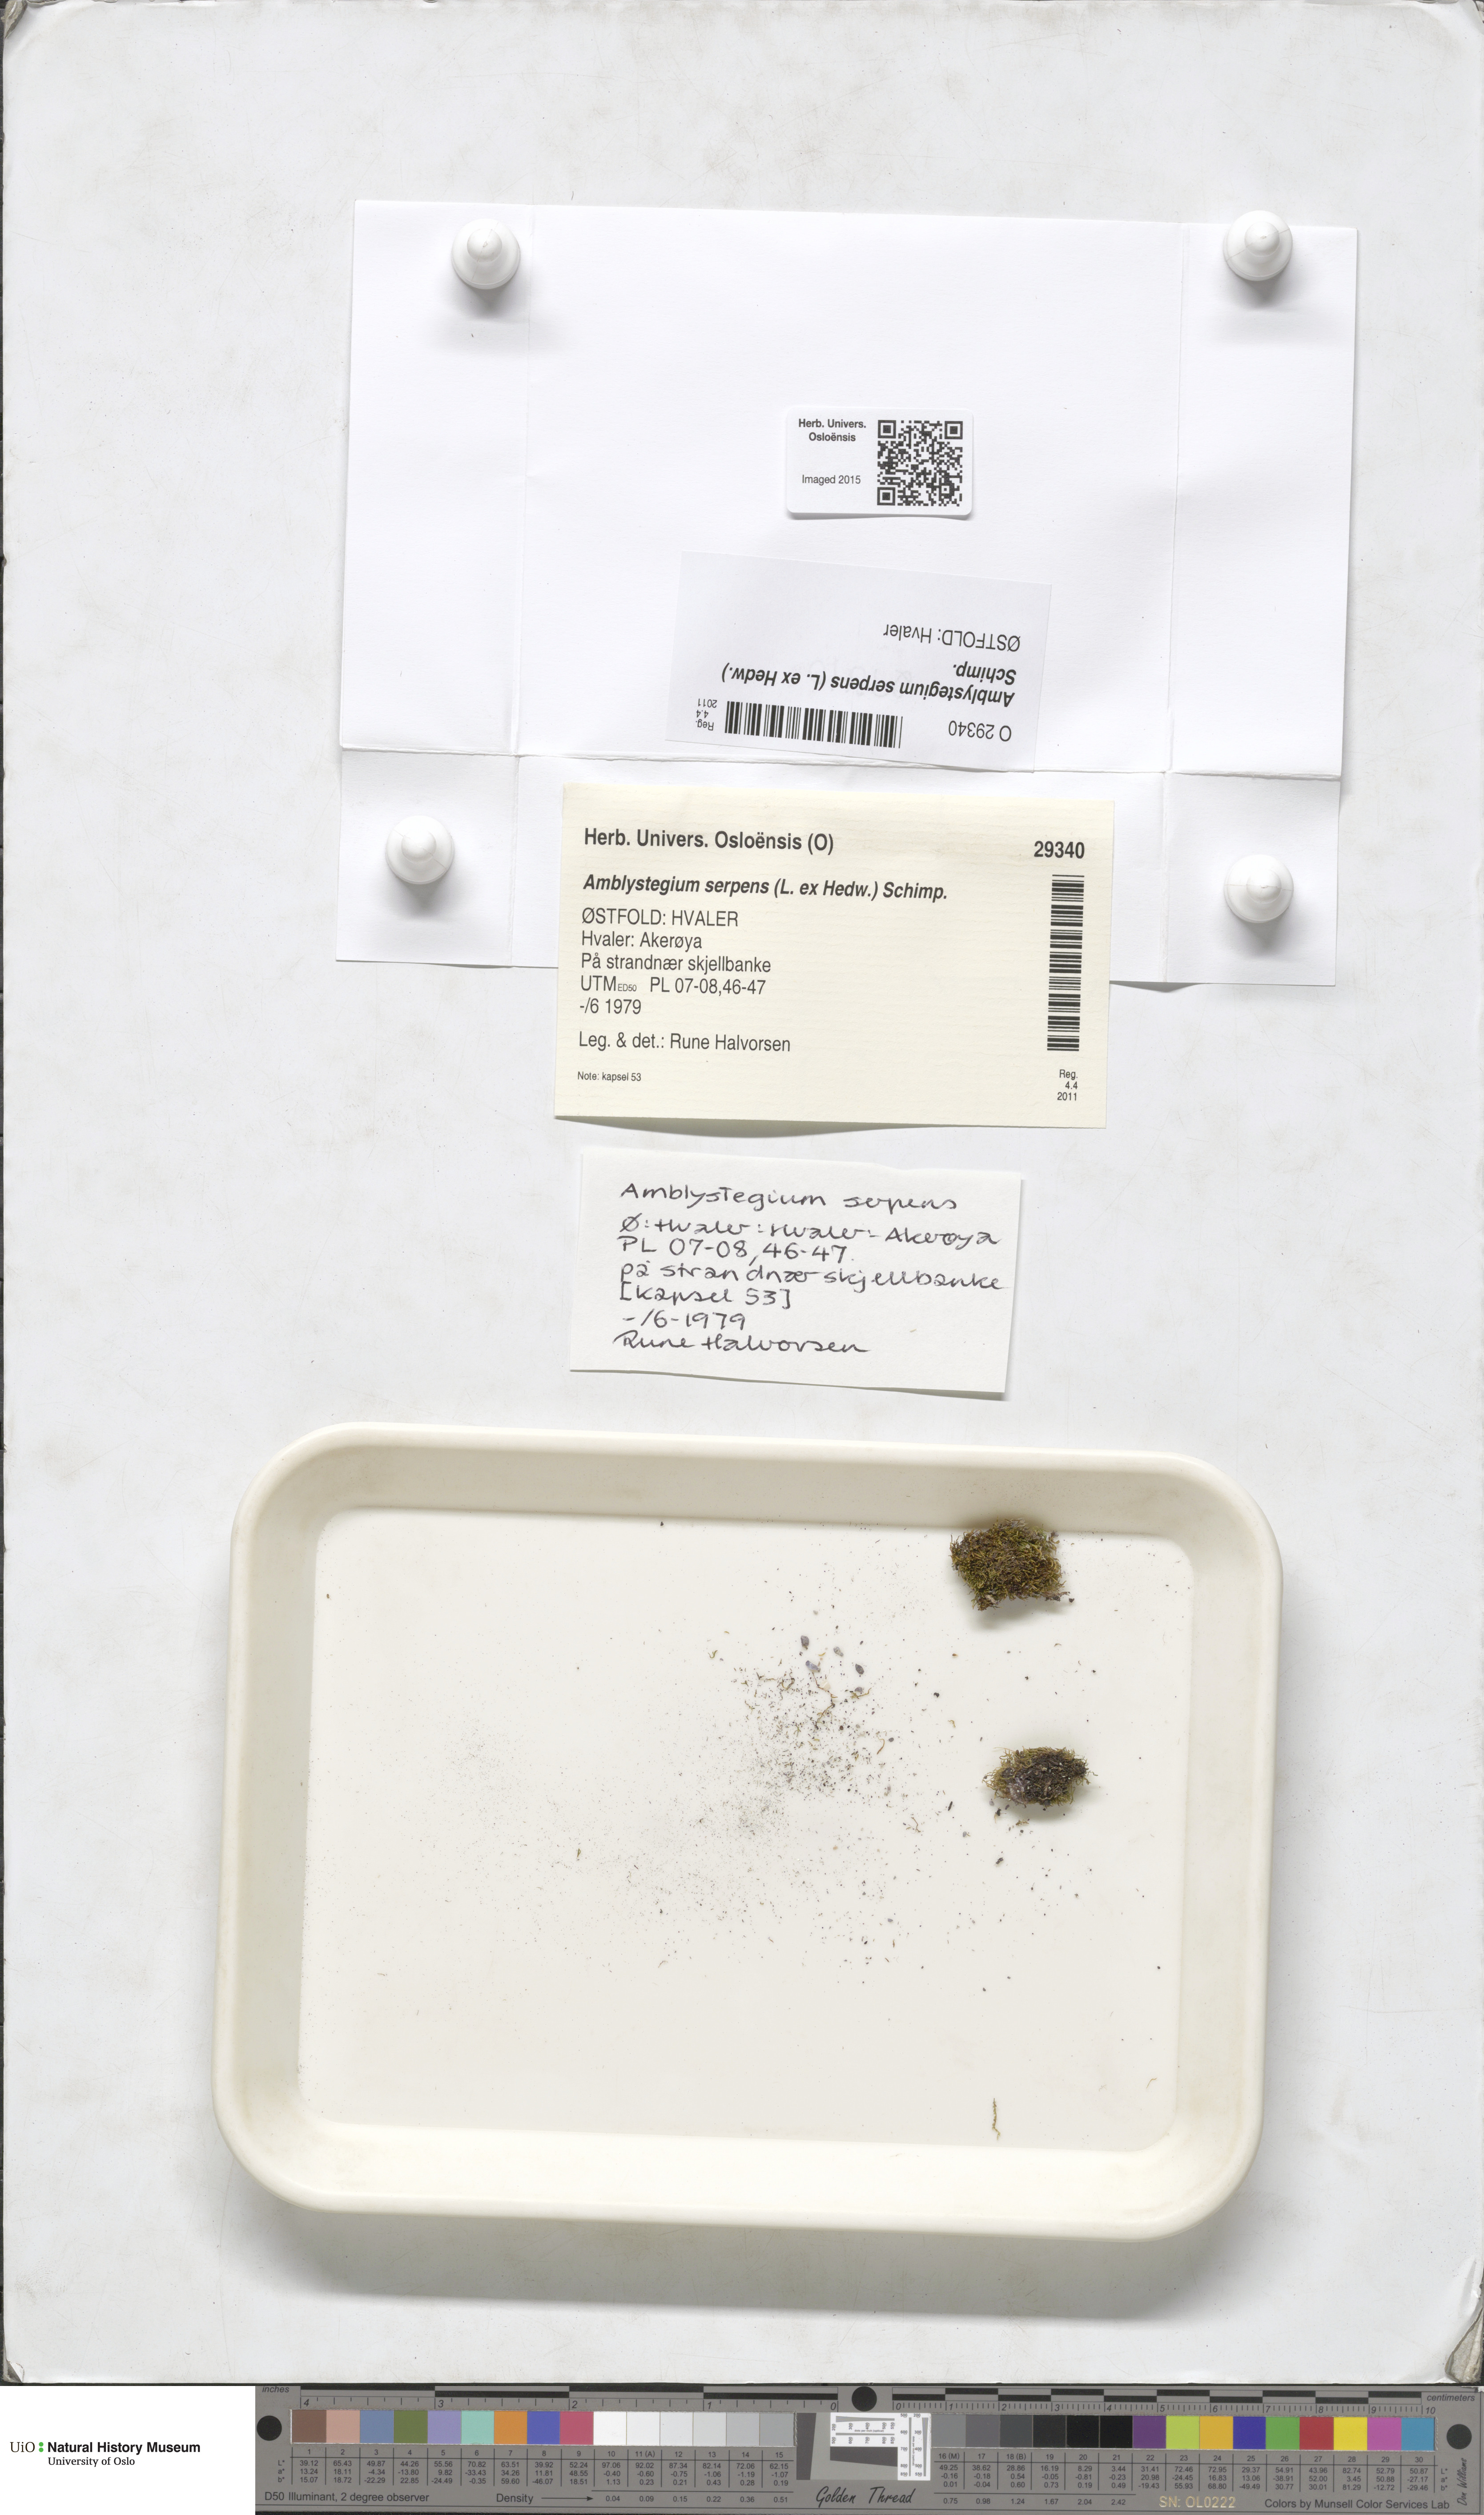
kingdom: Plantae
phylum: Bryophyta
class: Bryopsida
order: Hypnales
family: Amblystegiaceae
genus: Amblystegium
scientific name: Amblystegium serpens
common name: Jurkatzka's feather moss
